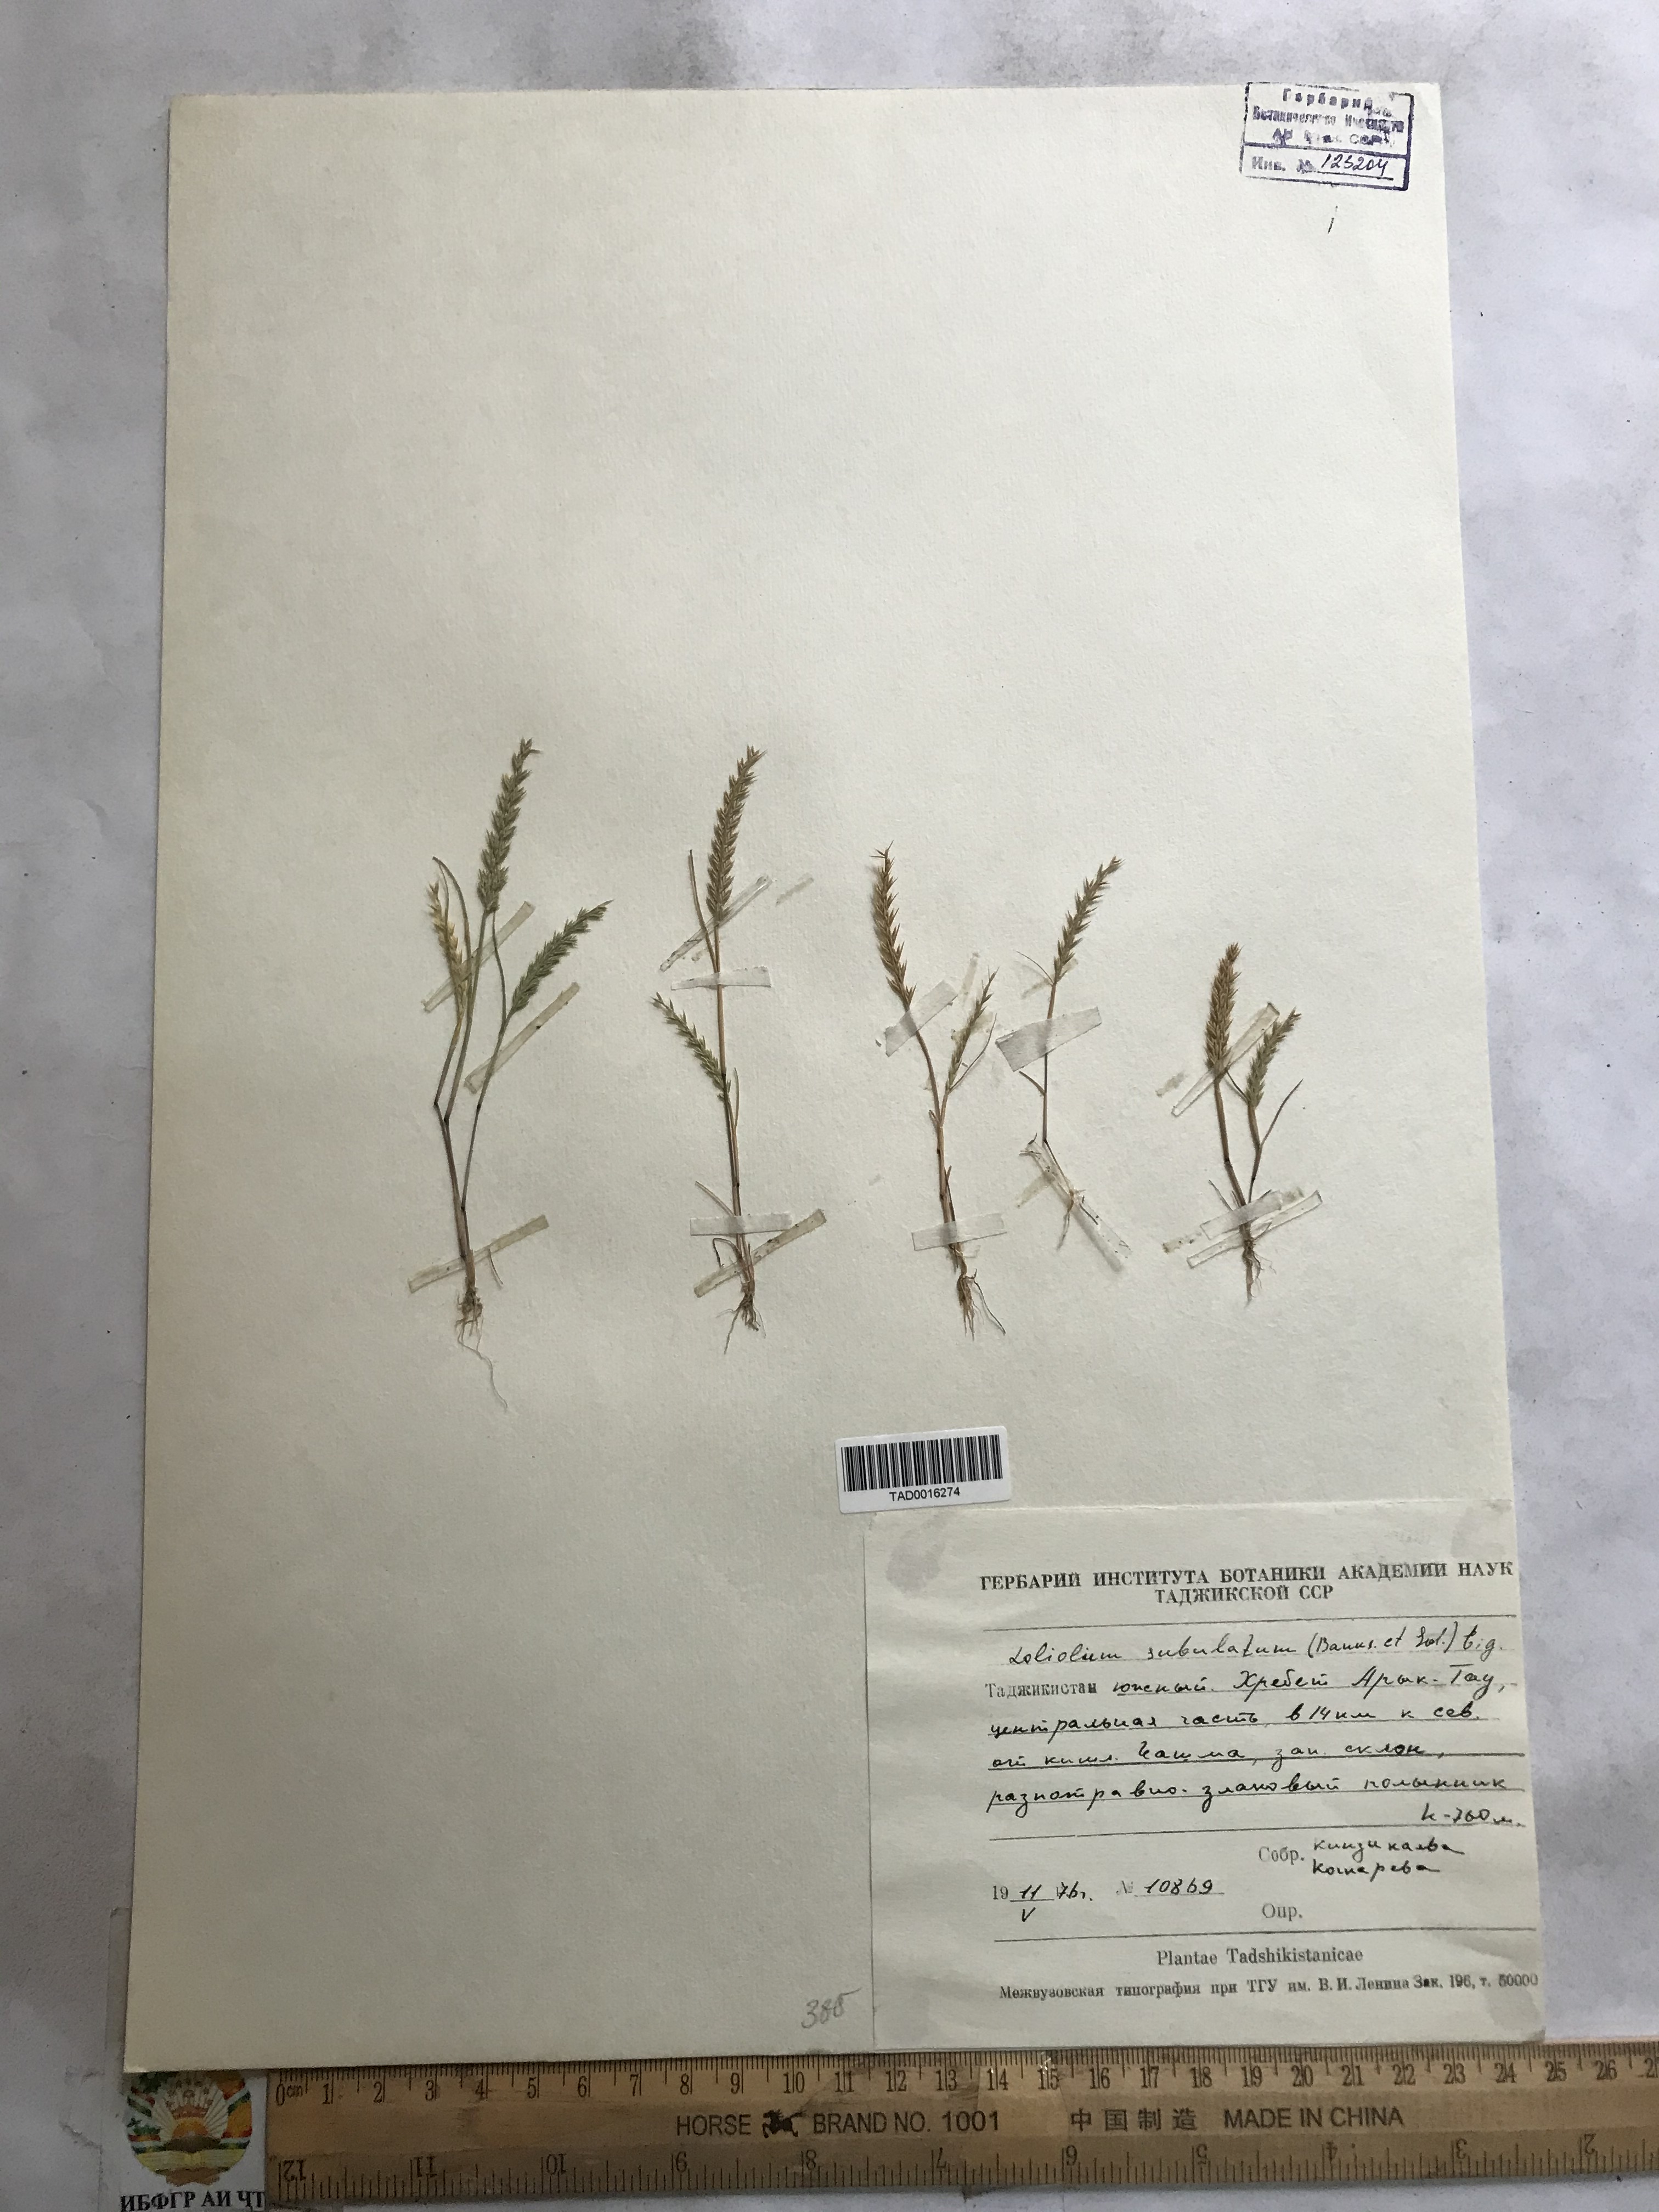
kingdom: Plantae
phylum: Tracheophyta
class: Liliopsida
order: Poales
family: Poaceae
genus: Festuca
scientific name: Festuca orientalis
